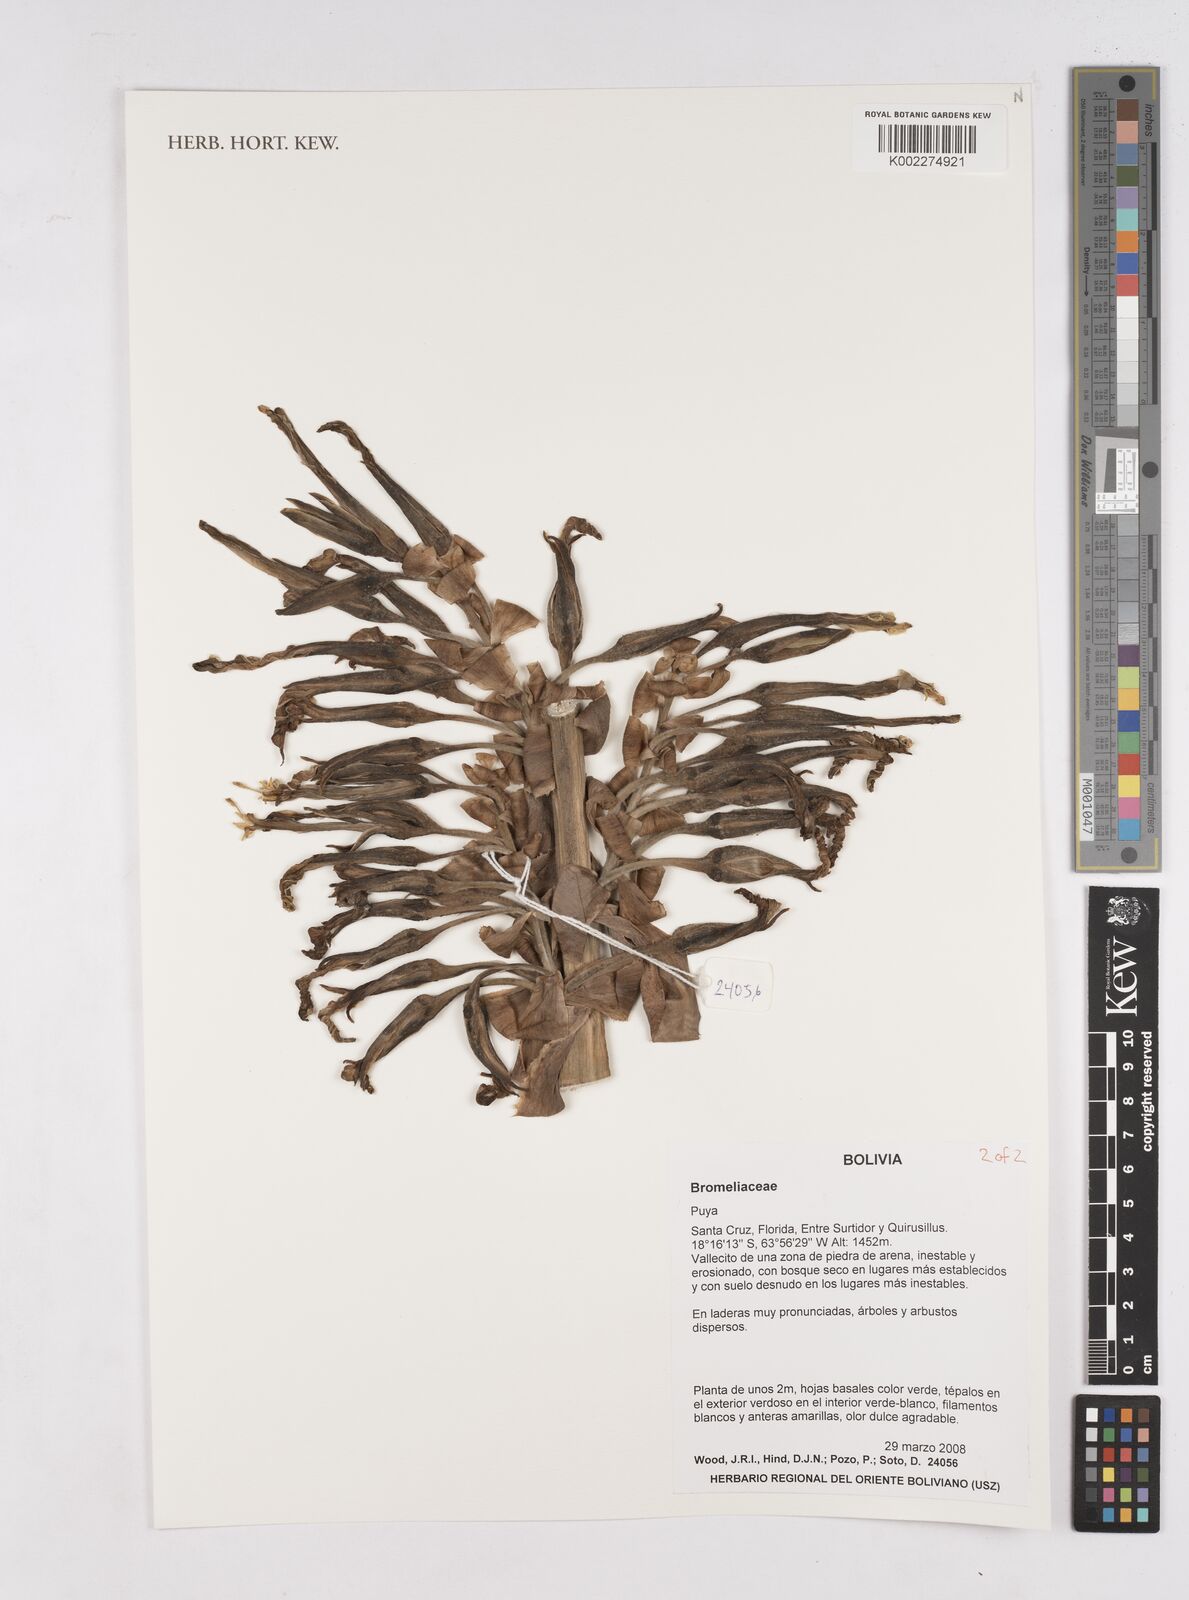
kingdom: Plantae
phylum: Tracheophyta
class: Liliopsida
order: Poales
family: Bromeliaceae
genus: Puya
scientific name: Puya
